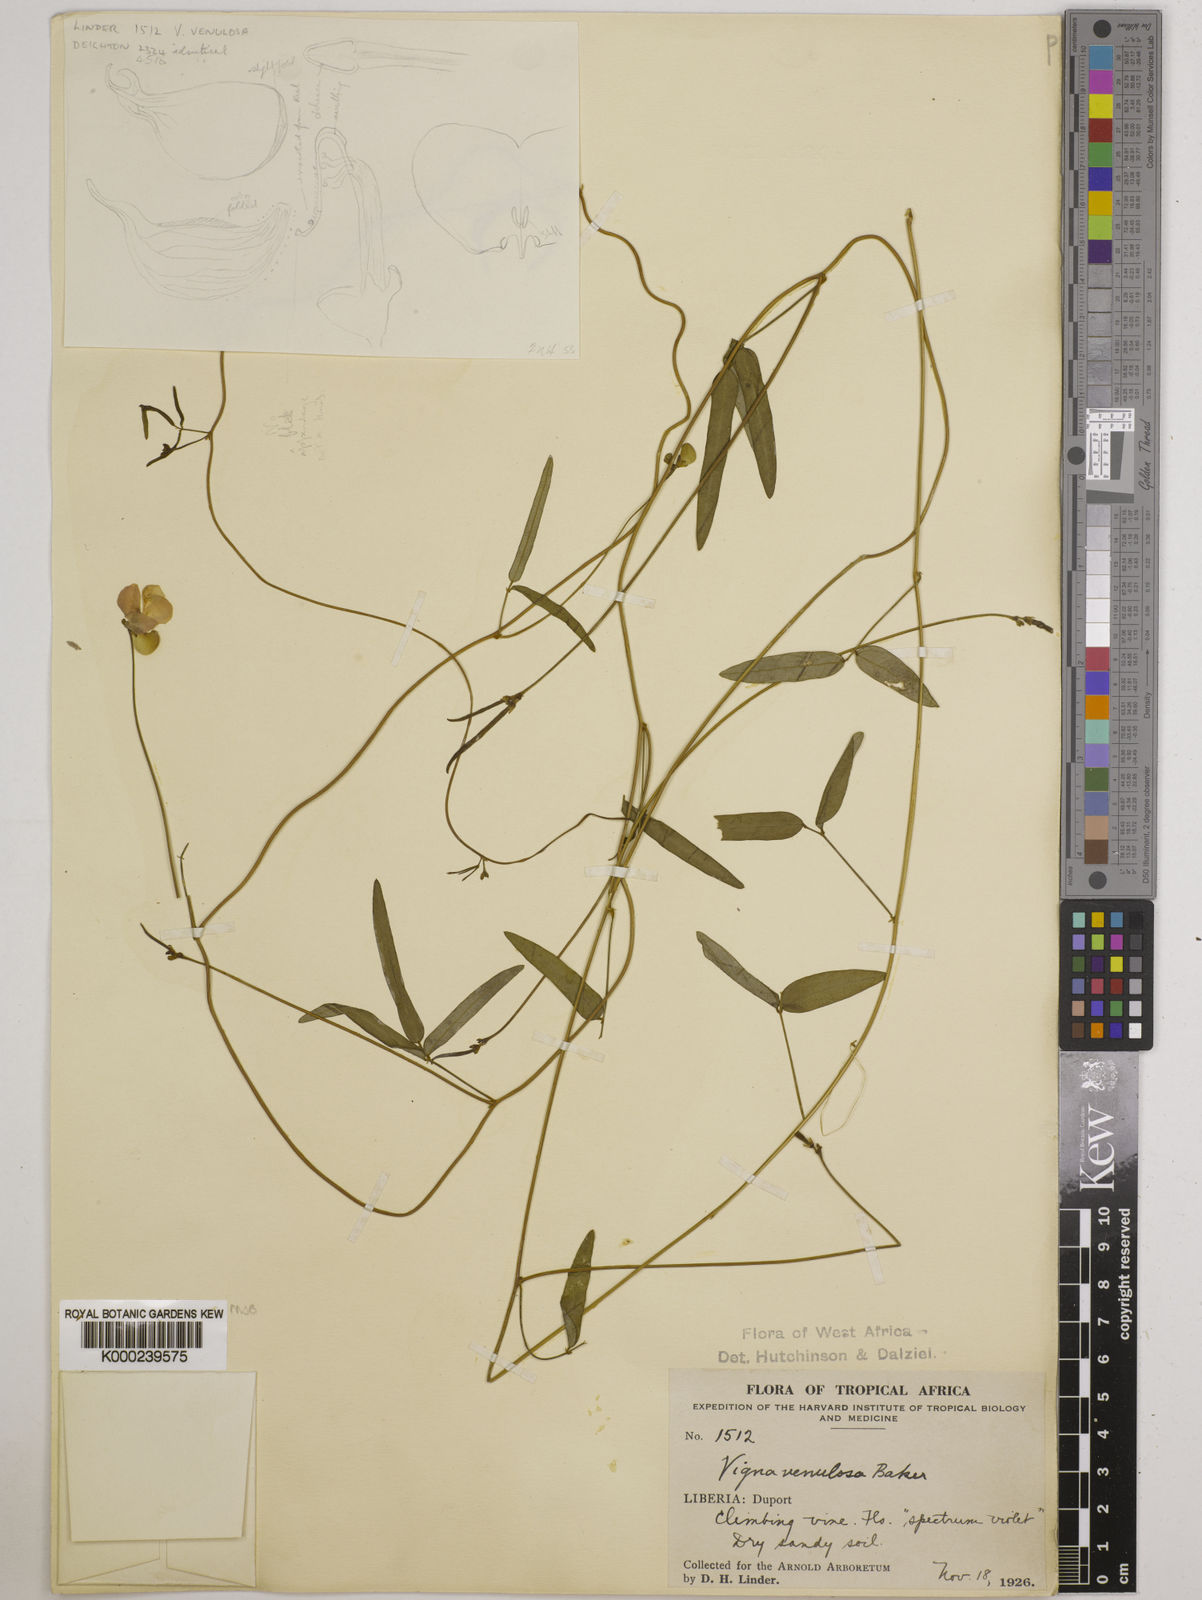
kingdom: Plantae
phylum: Tracheophyta
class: Magnoliopsida
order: Fabales
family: Fabaceae
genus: Vigna
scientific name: Vigna venulosa
